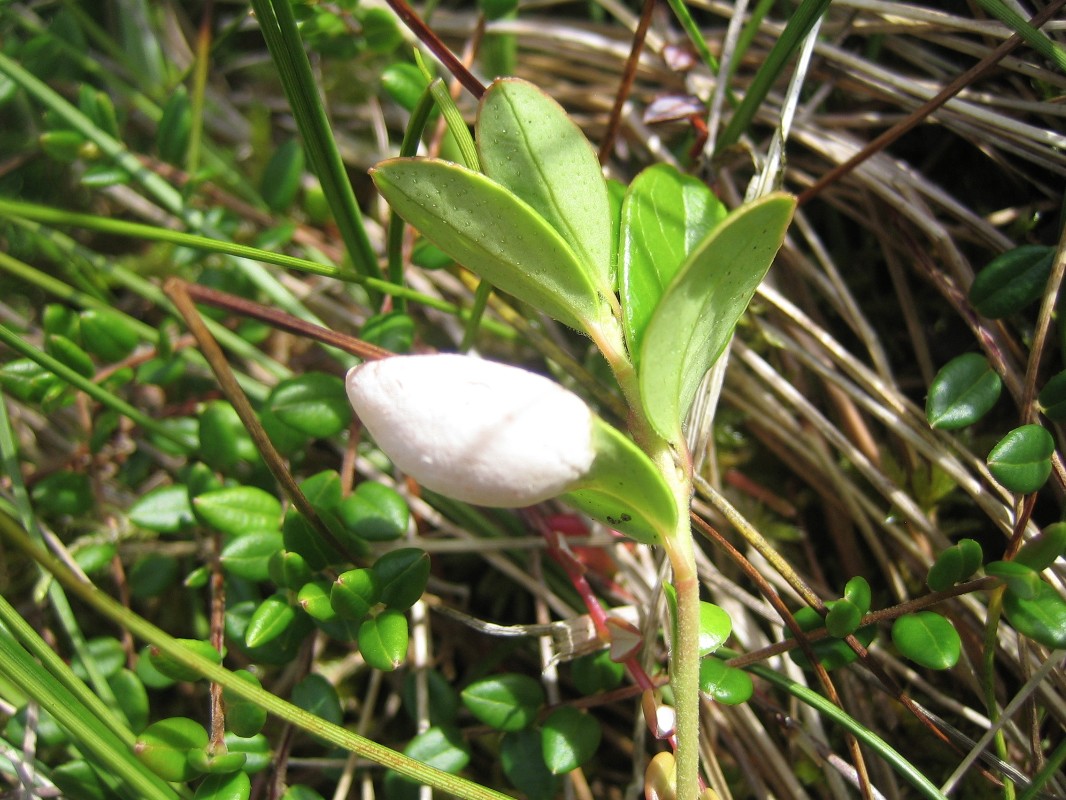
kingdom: Fungi
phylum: Basidiomycota
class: Exobasidiomycetes
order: Exobasidiales
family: Exobasidiaceae
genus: Exobasidium
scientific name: Exobasidium vaccinii
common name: tyttebærblad-bøllesvamp
